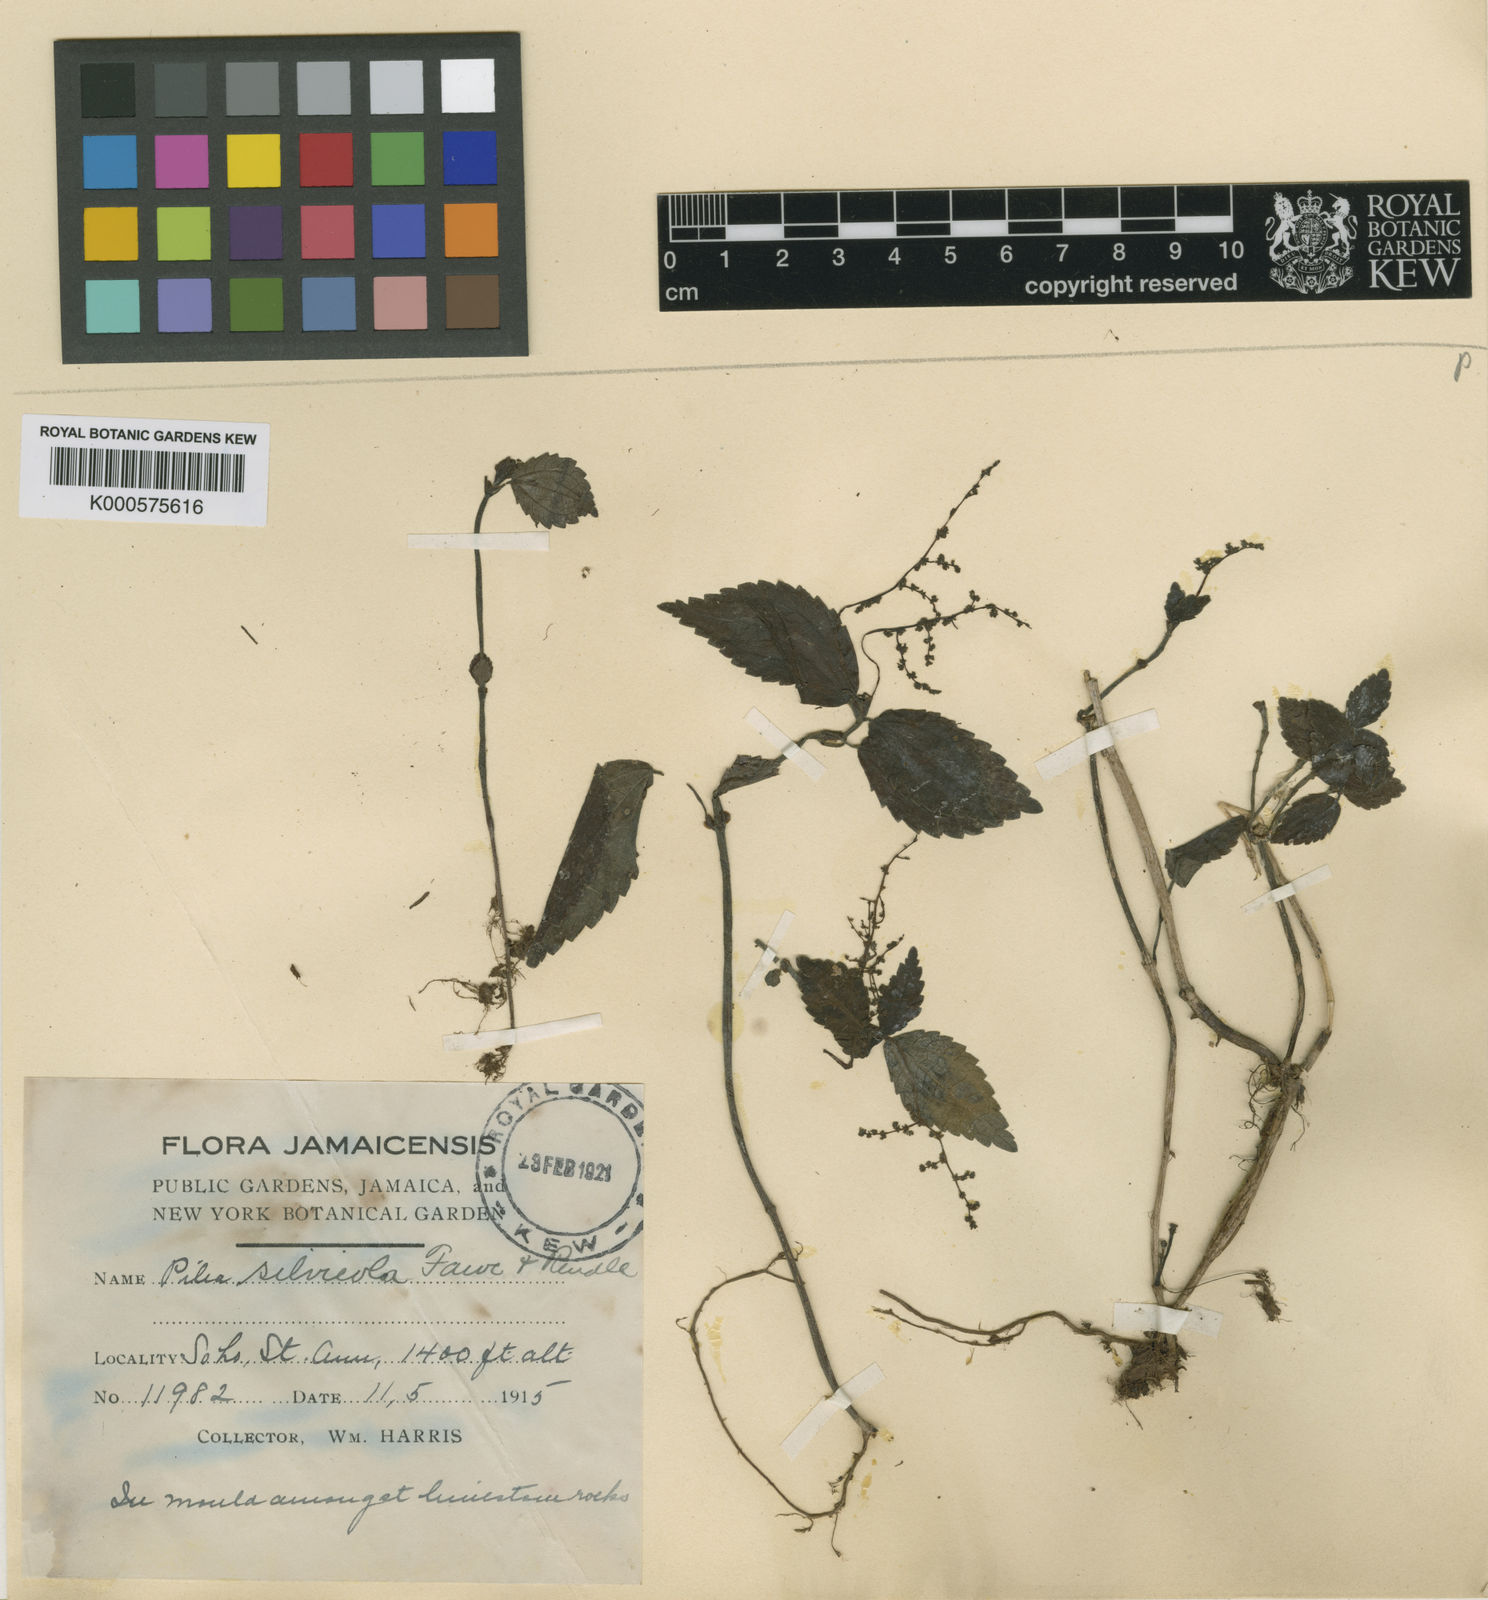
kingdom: Plantae
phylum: Tracheophyta
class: Magnoliopsida
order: Rosales
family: Urticaceae
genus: Pilea
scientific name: Pilea silvicola
